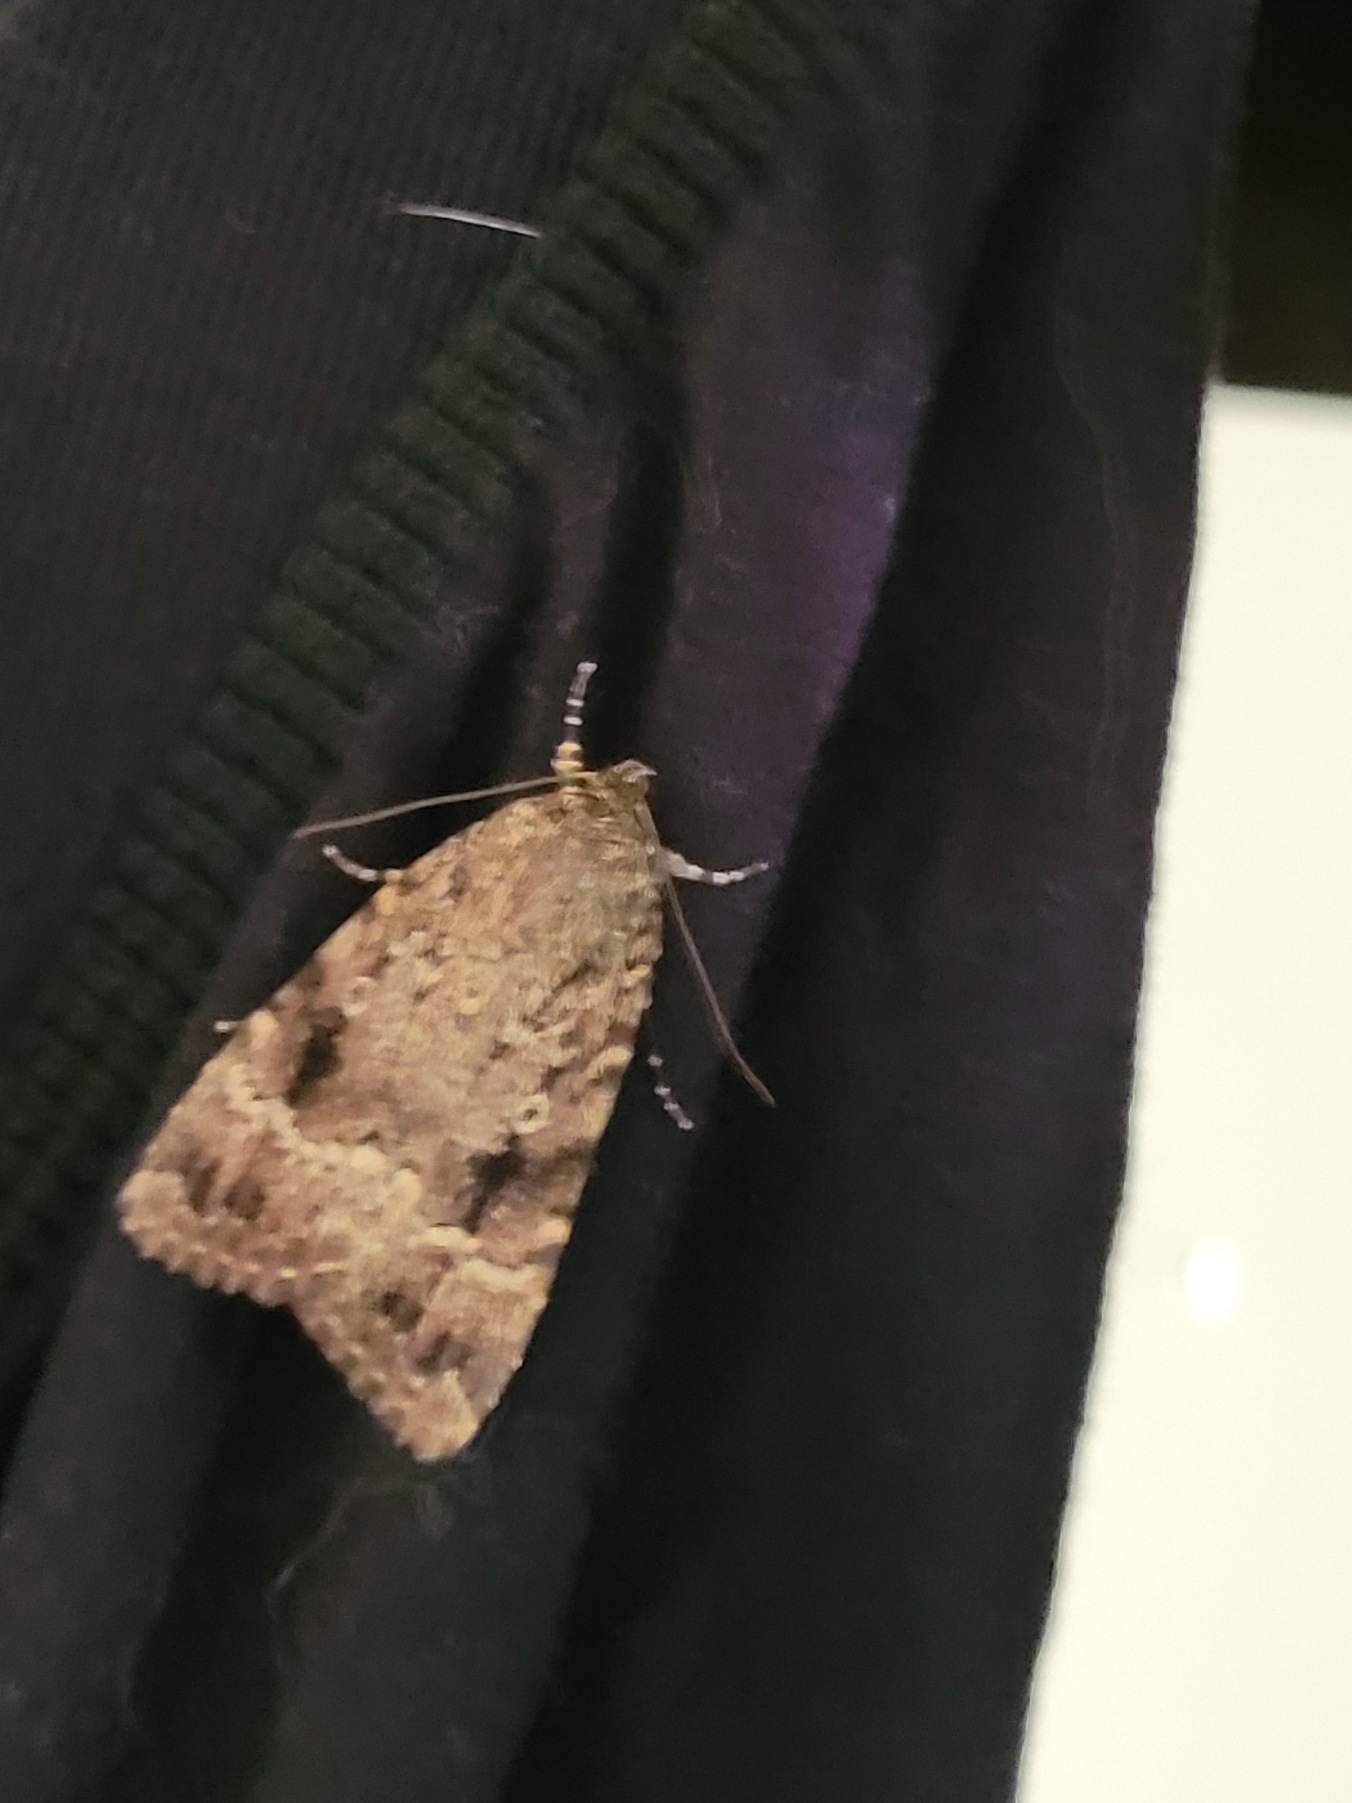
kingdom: Animalia
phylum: Arthropoda
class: Insecta
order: Lepidoptera
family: Noctuidae
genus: Amphipyra
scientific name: Amphipyra pyramidea
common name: Pyramideugle
